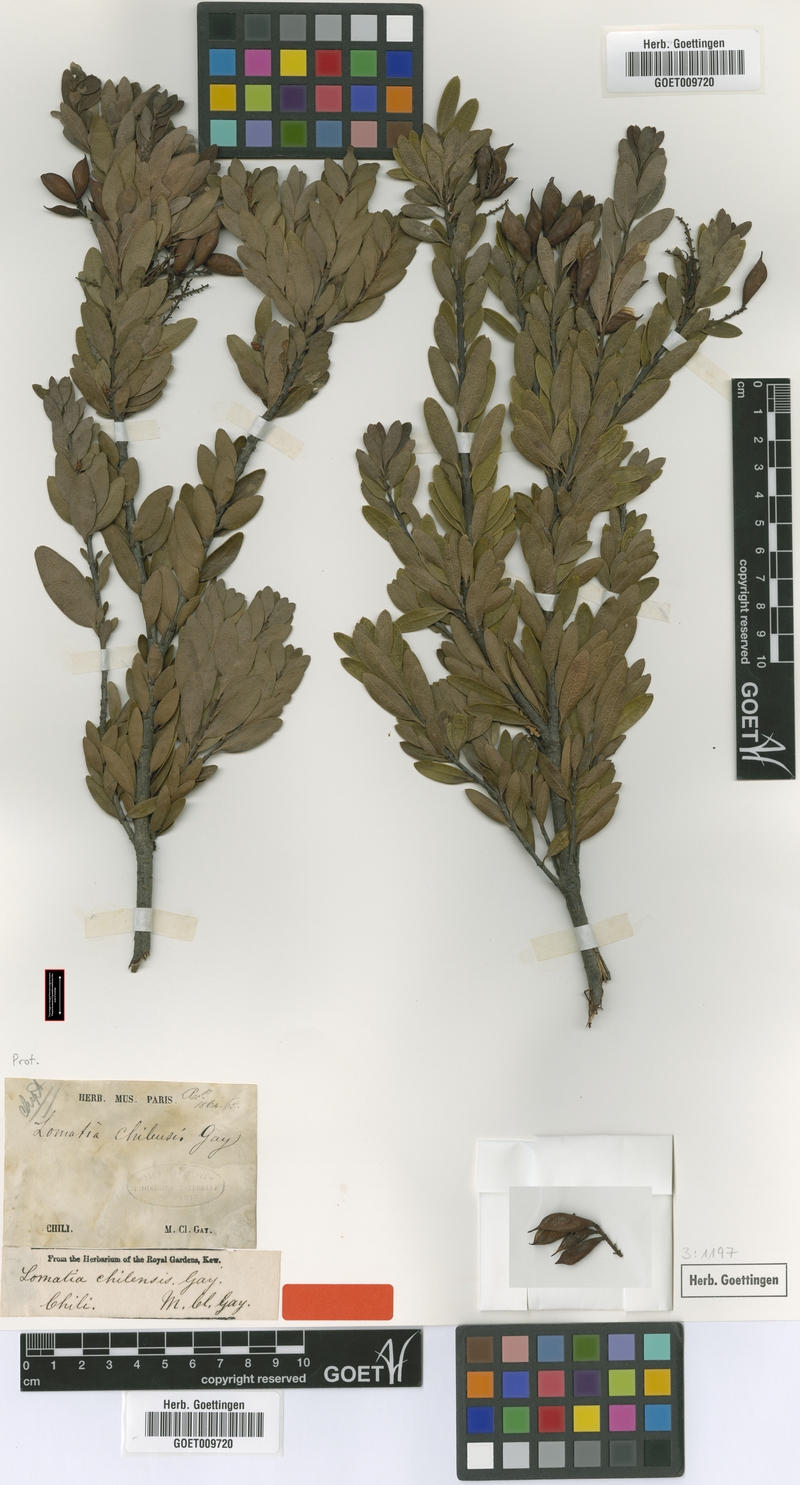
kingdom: Plantae
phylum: Tracheophyta
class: Magnoliopsida
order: Proteales
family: Proteaceae
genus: Orites
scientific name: Orites myrtoideus
